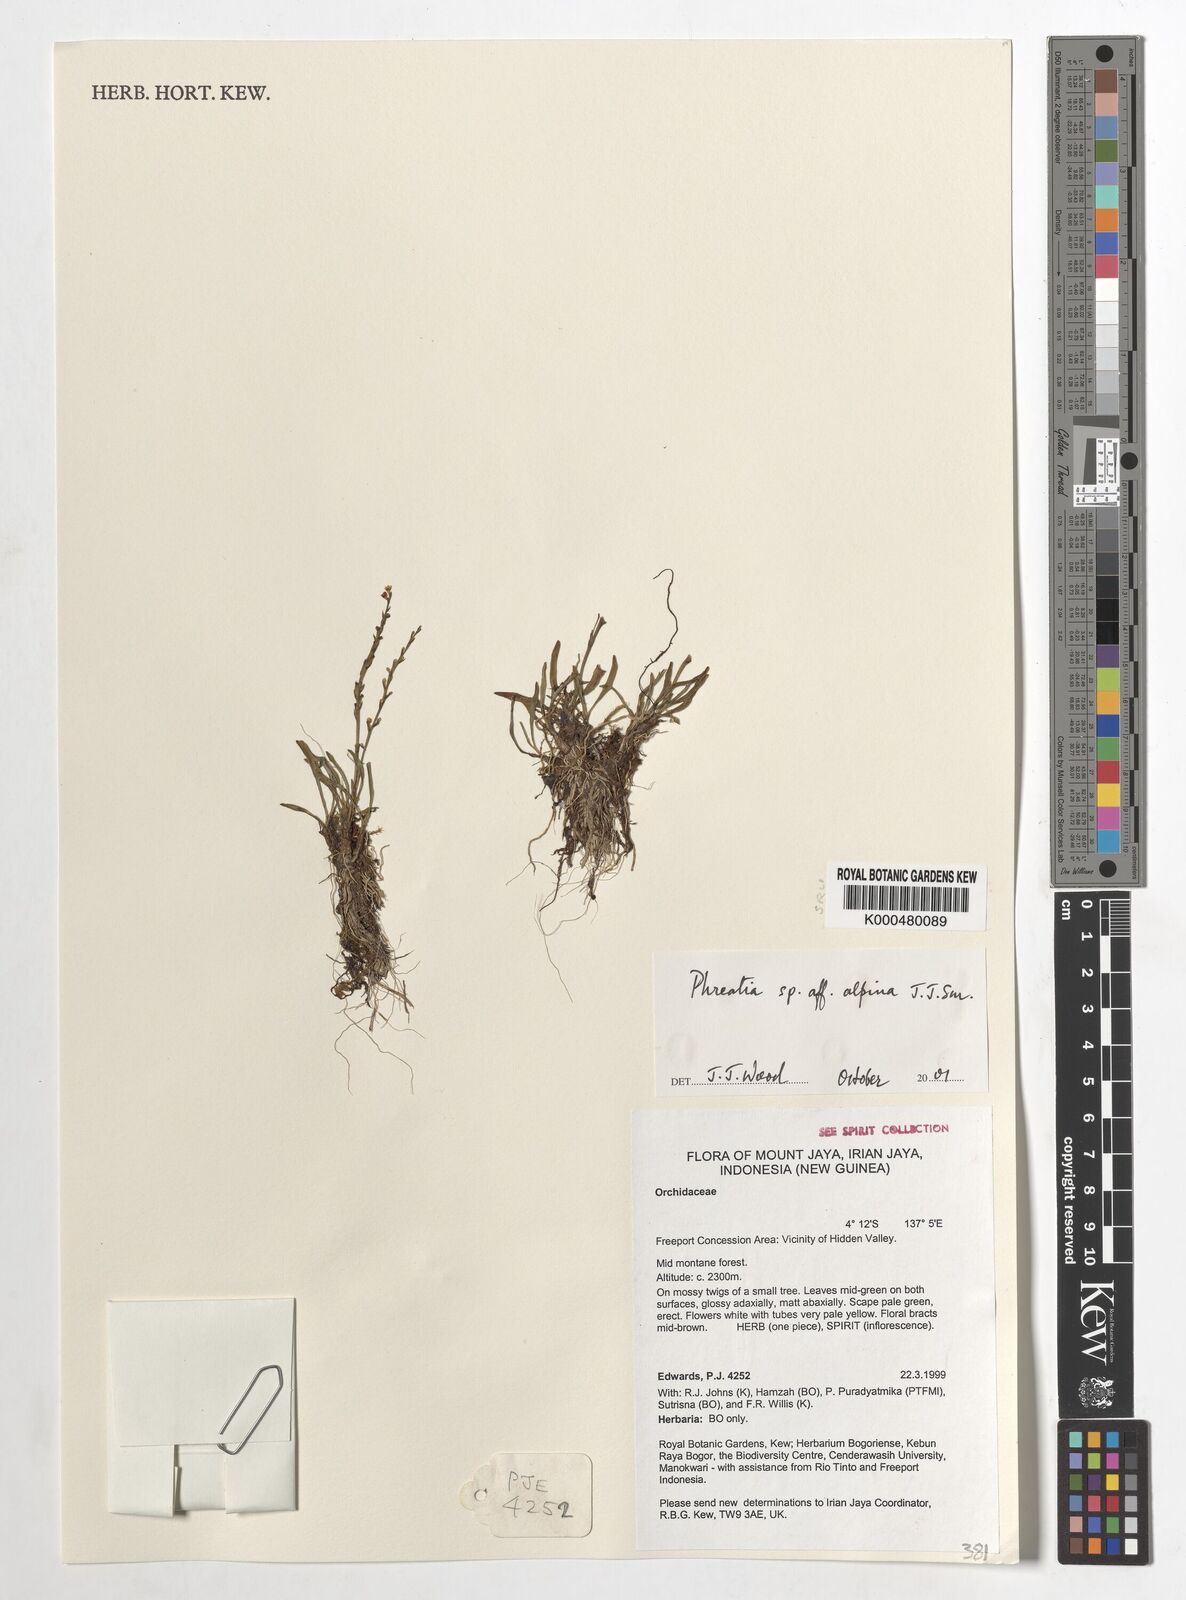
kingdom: Plantae
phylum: Tracheophyta
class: Liliopsida
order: Asparagales
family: Orchidaceae
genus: Phreatia
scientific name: Phreatia alpina
